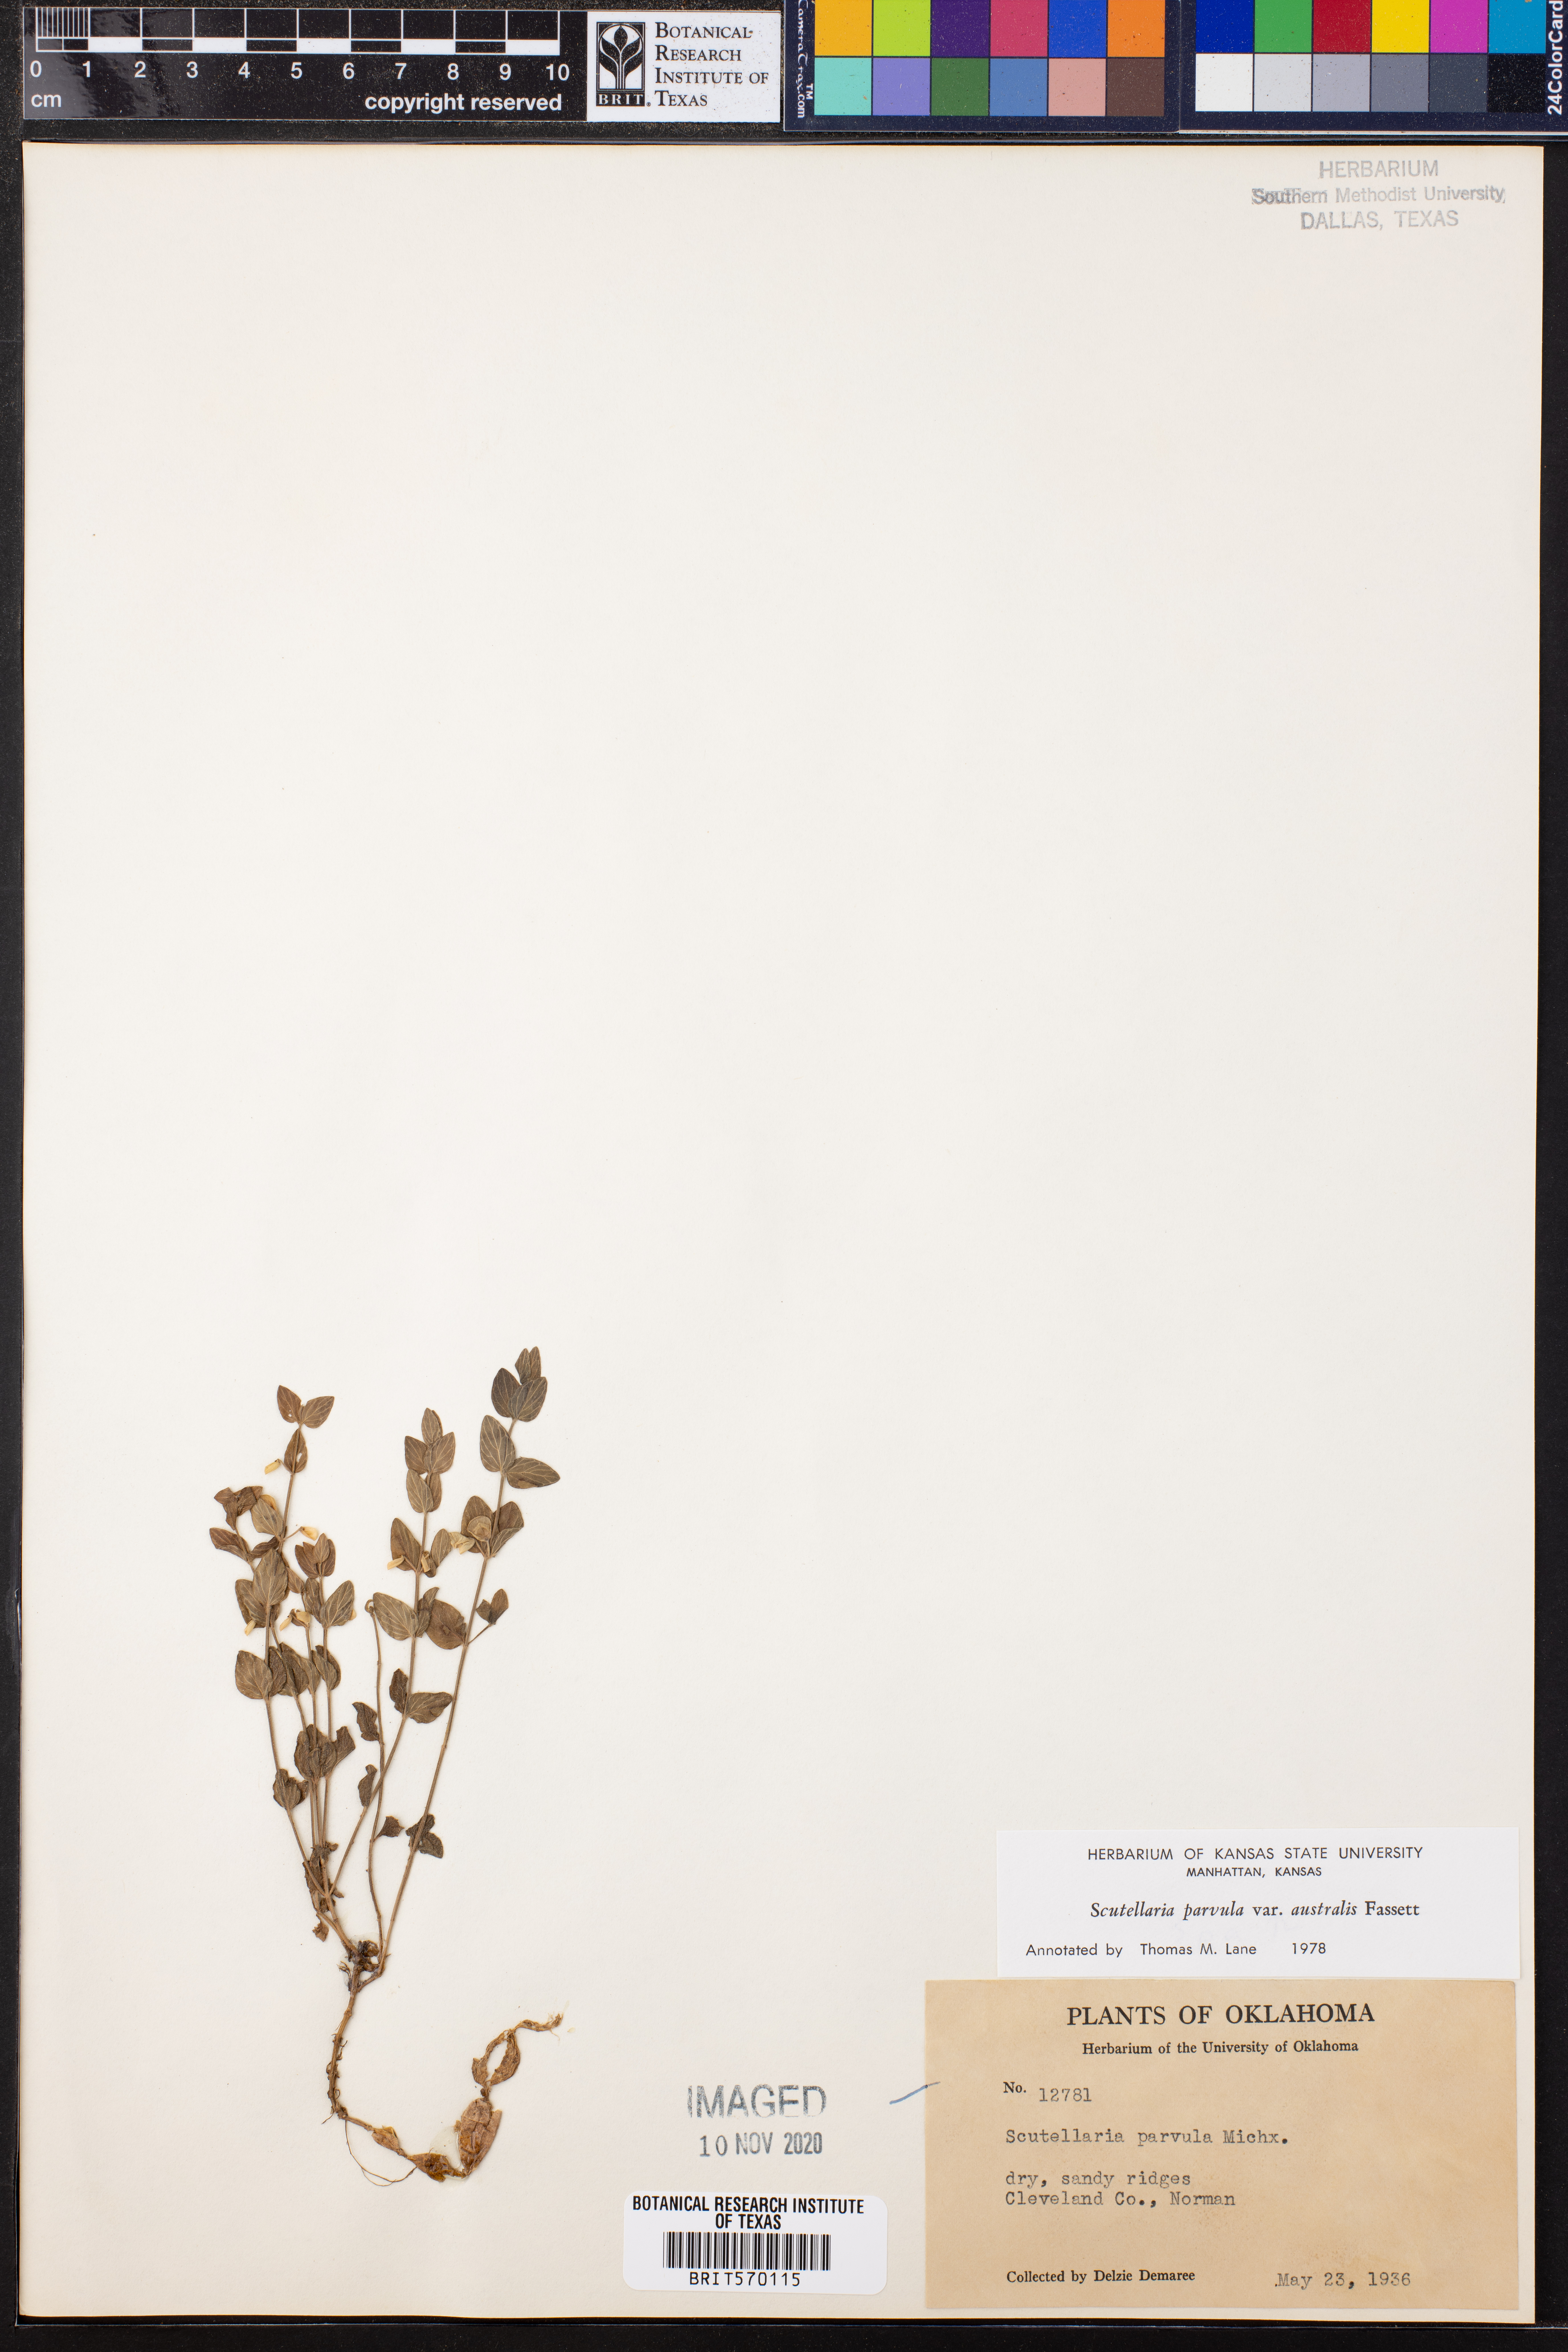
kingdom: Plantae
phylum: Tracheophyta
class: Magnoliopsida
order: Lamiales
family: Lamiaceae
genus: Scutellaria
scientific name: Scutellaria parvula
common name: Little scullcap
